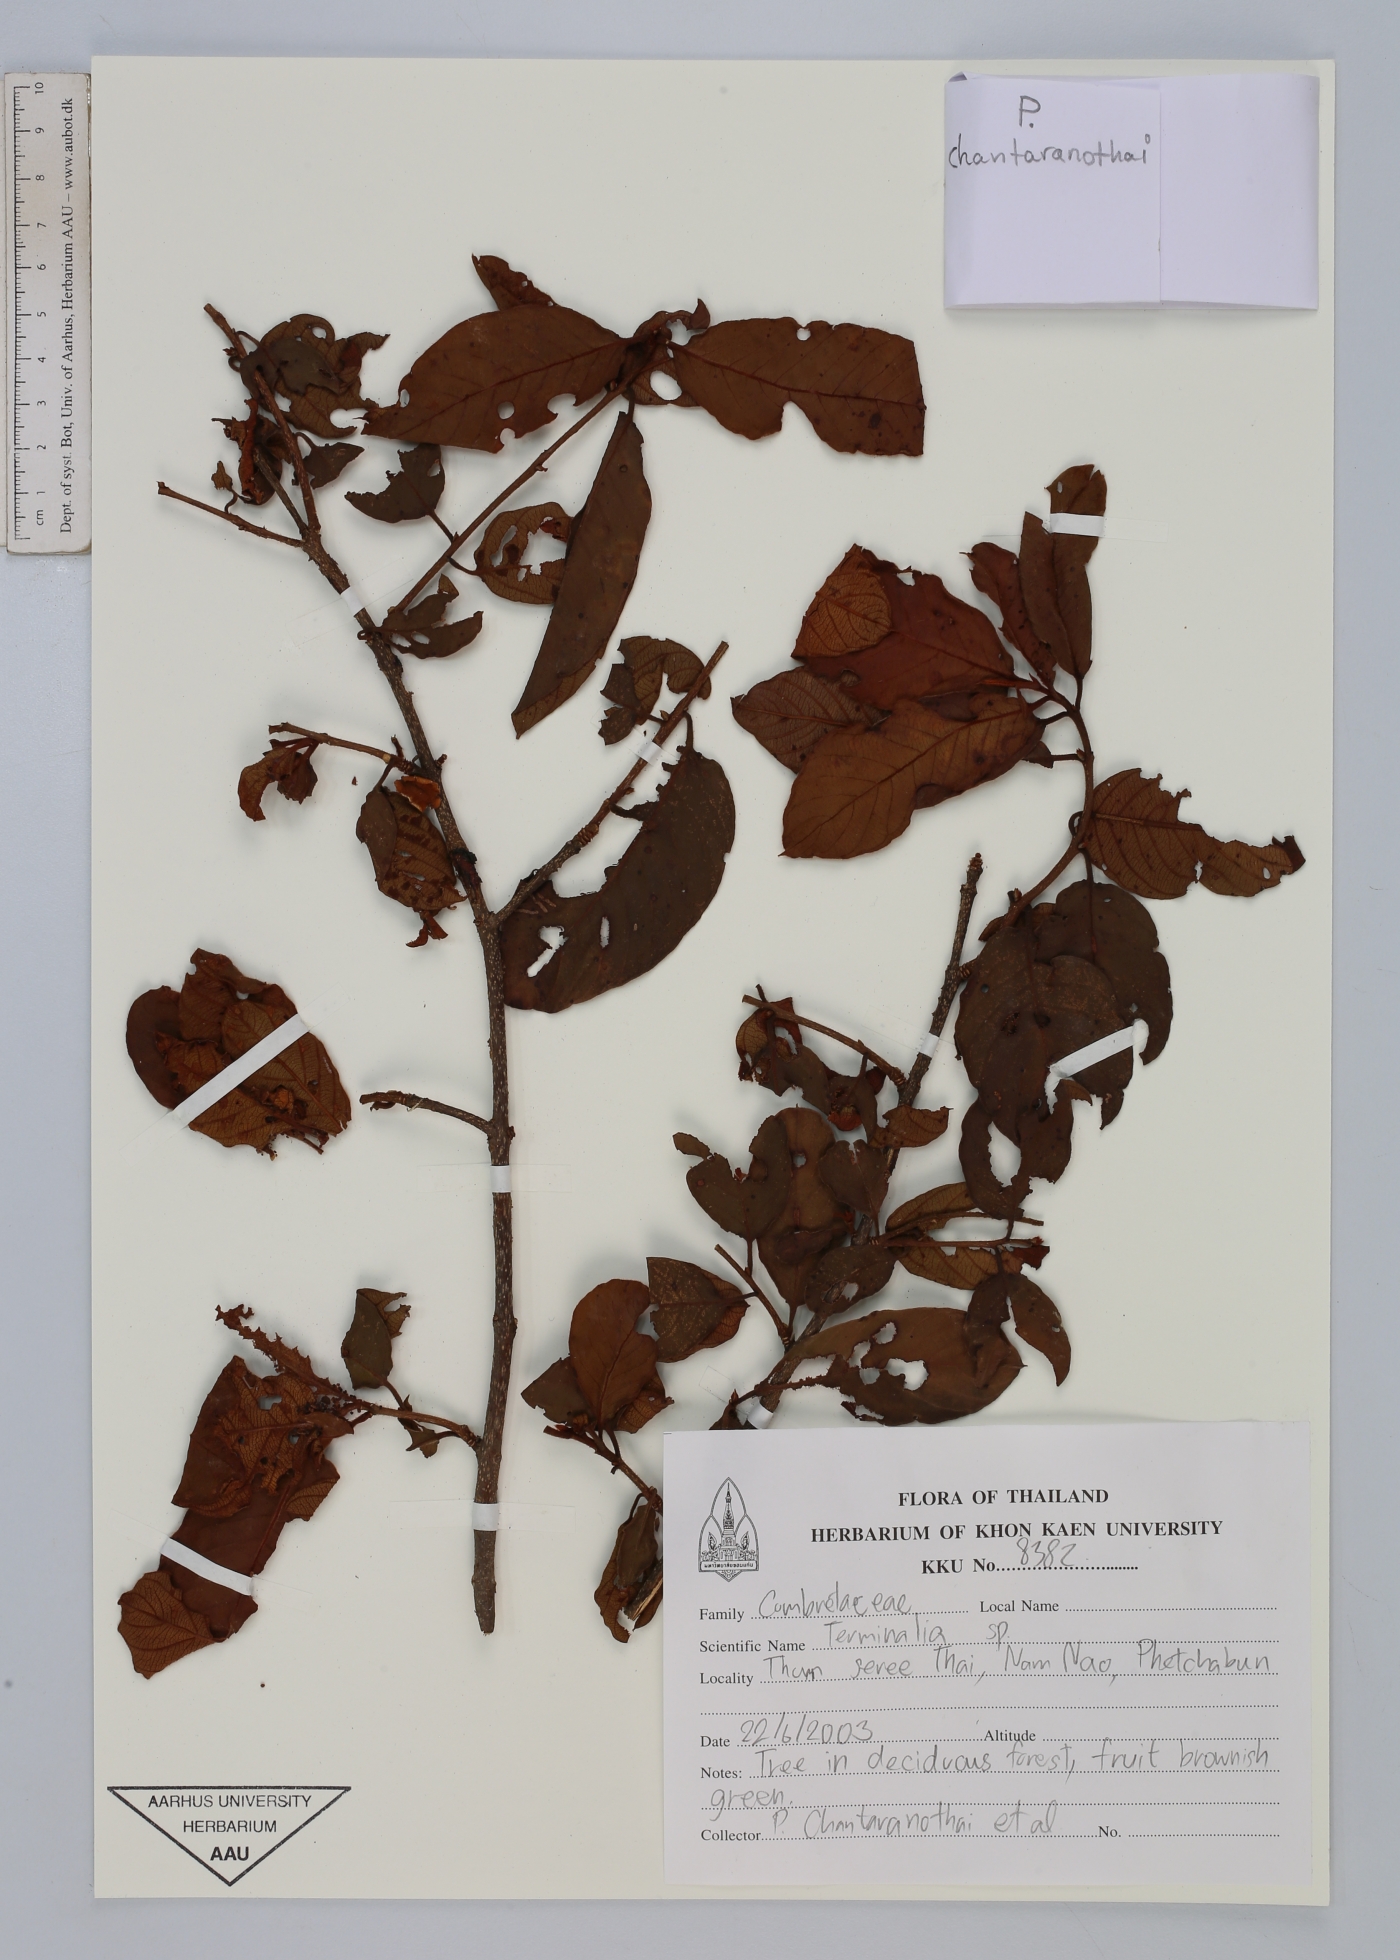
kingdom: Plantae
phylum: Tracheophyta
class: Magnoliopsida
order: Myrtales
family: Combretaceae
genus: Terminalia
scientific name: Terminalia
